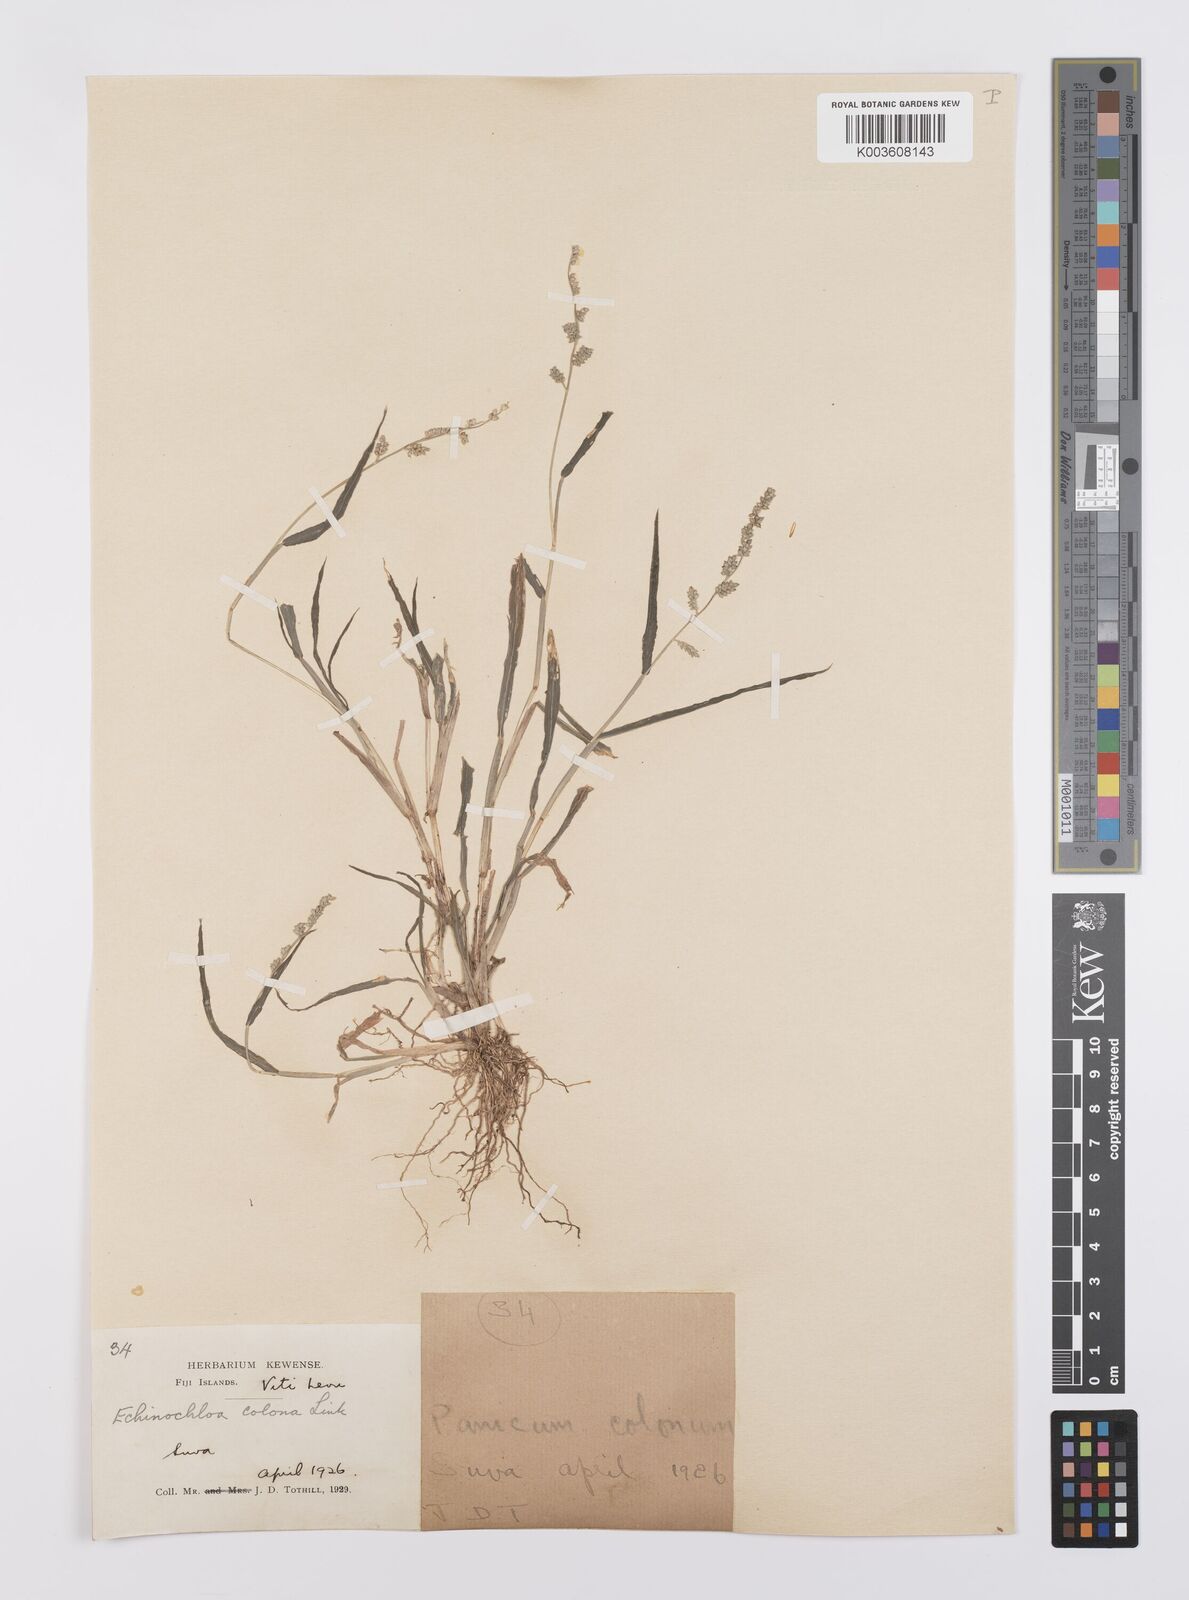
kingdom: Plantae
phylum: Tracheophyta
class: Liliopsida
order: Poales
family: Poaceae
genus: Echinochloa
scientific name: Echinochloa colonum
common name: Jungle rice
